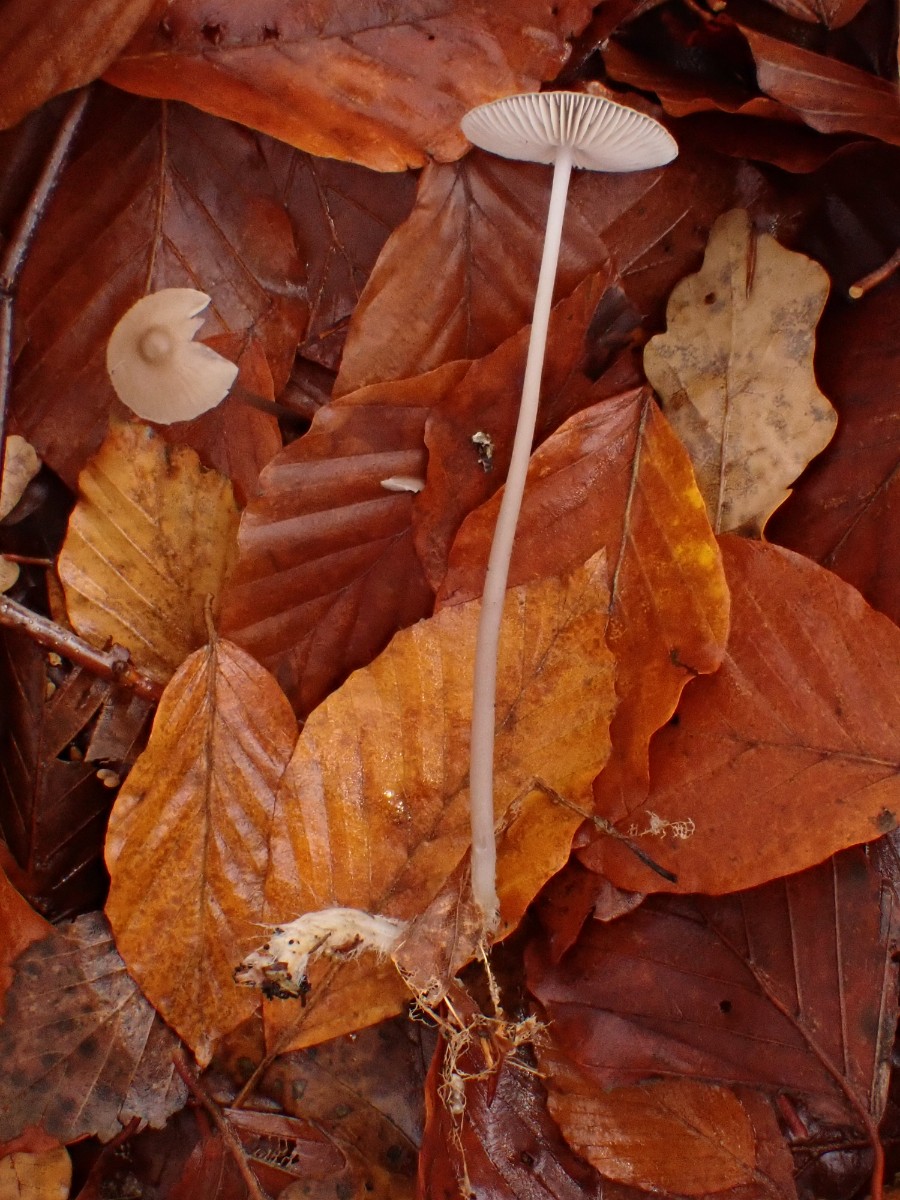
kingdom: Fungi
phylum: Basidiomycota
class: Agaricomycetes
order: Agaricales
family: Mycenaceae
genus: Mycena
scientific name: Mycena vitilis
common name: blankstokket huesvamp
